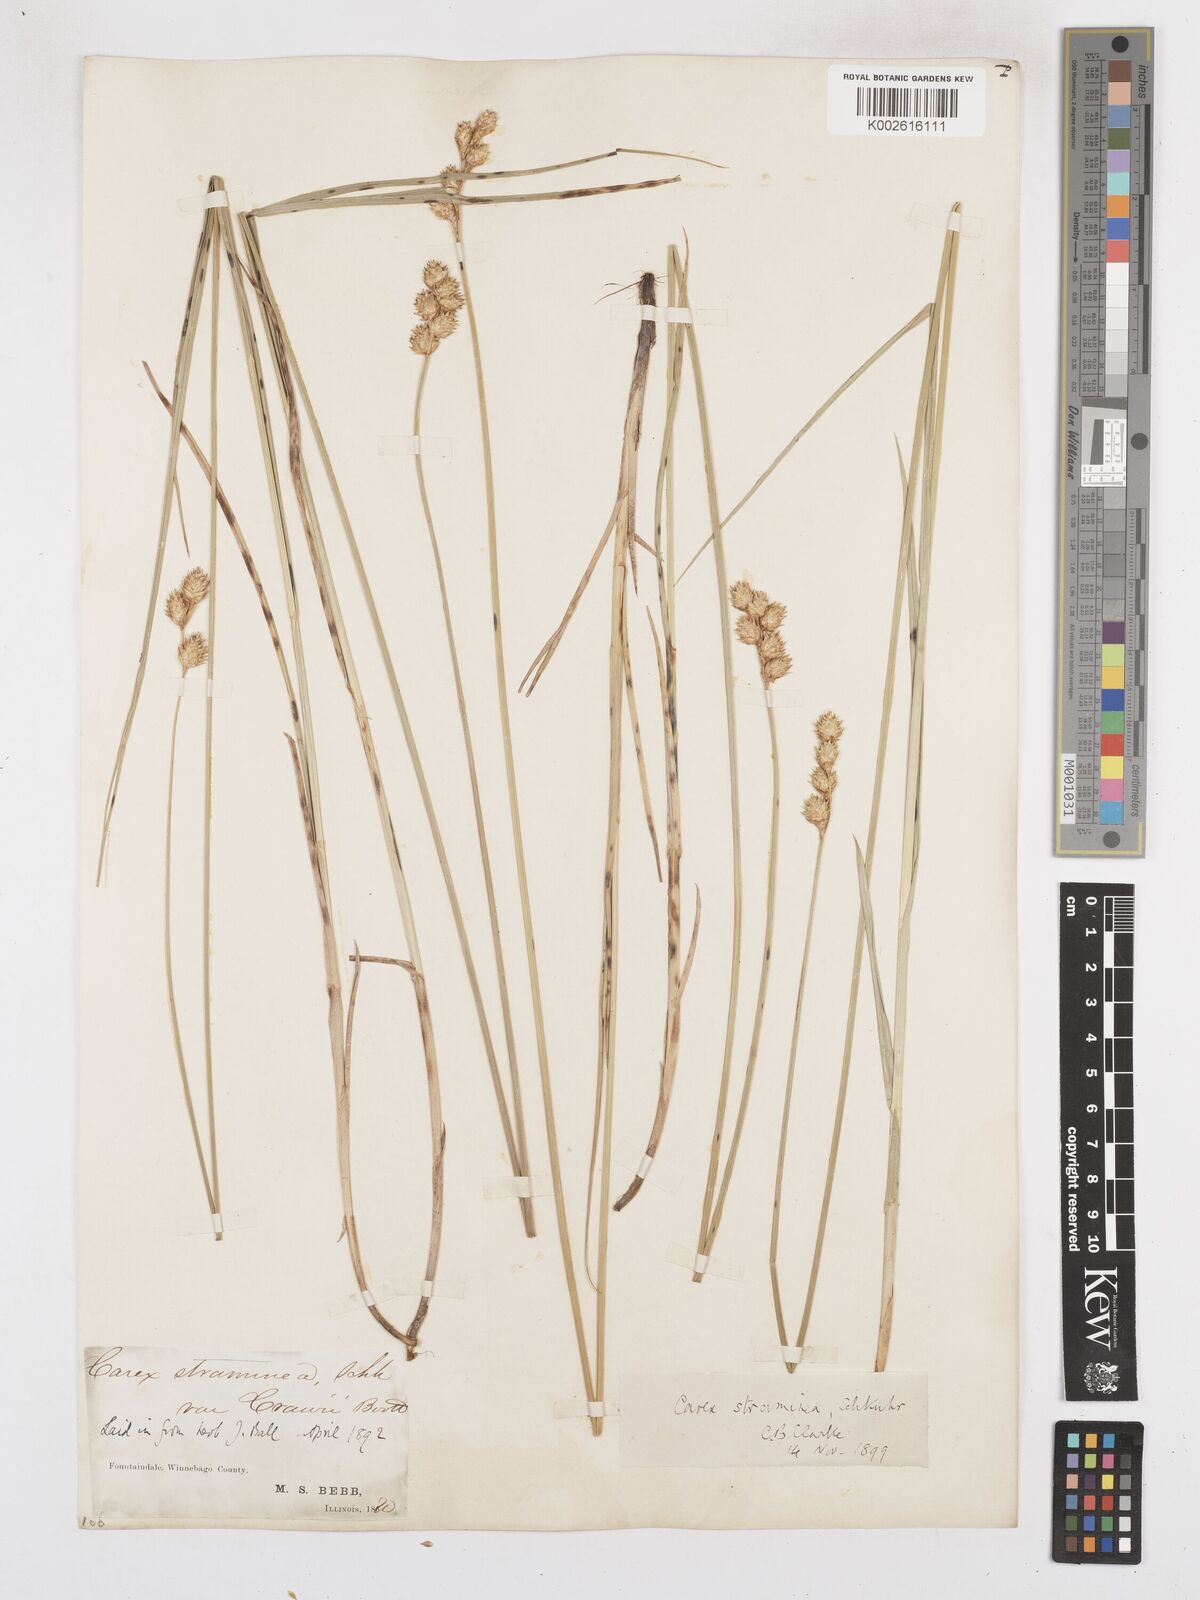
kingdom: Plantae
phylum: Tracheophyta
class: Liliopsida
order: Poales
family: Cyperaceae
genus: Carex
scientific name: Carex brevior
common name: Brevior sedge
